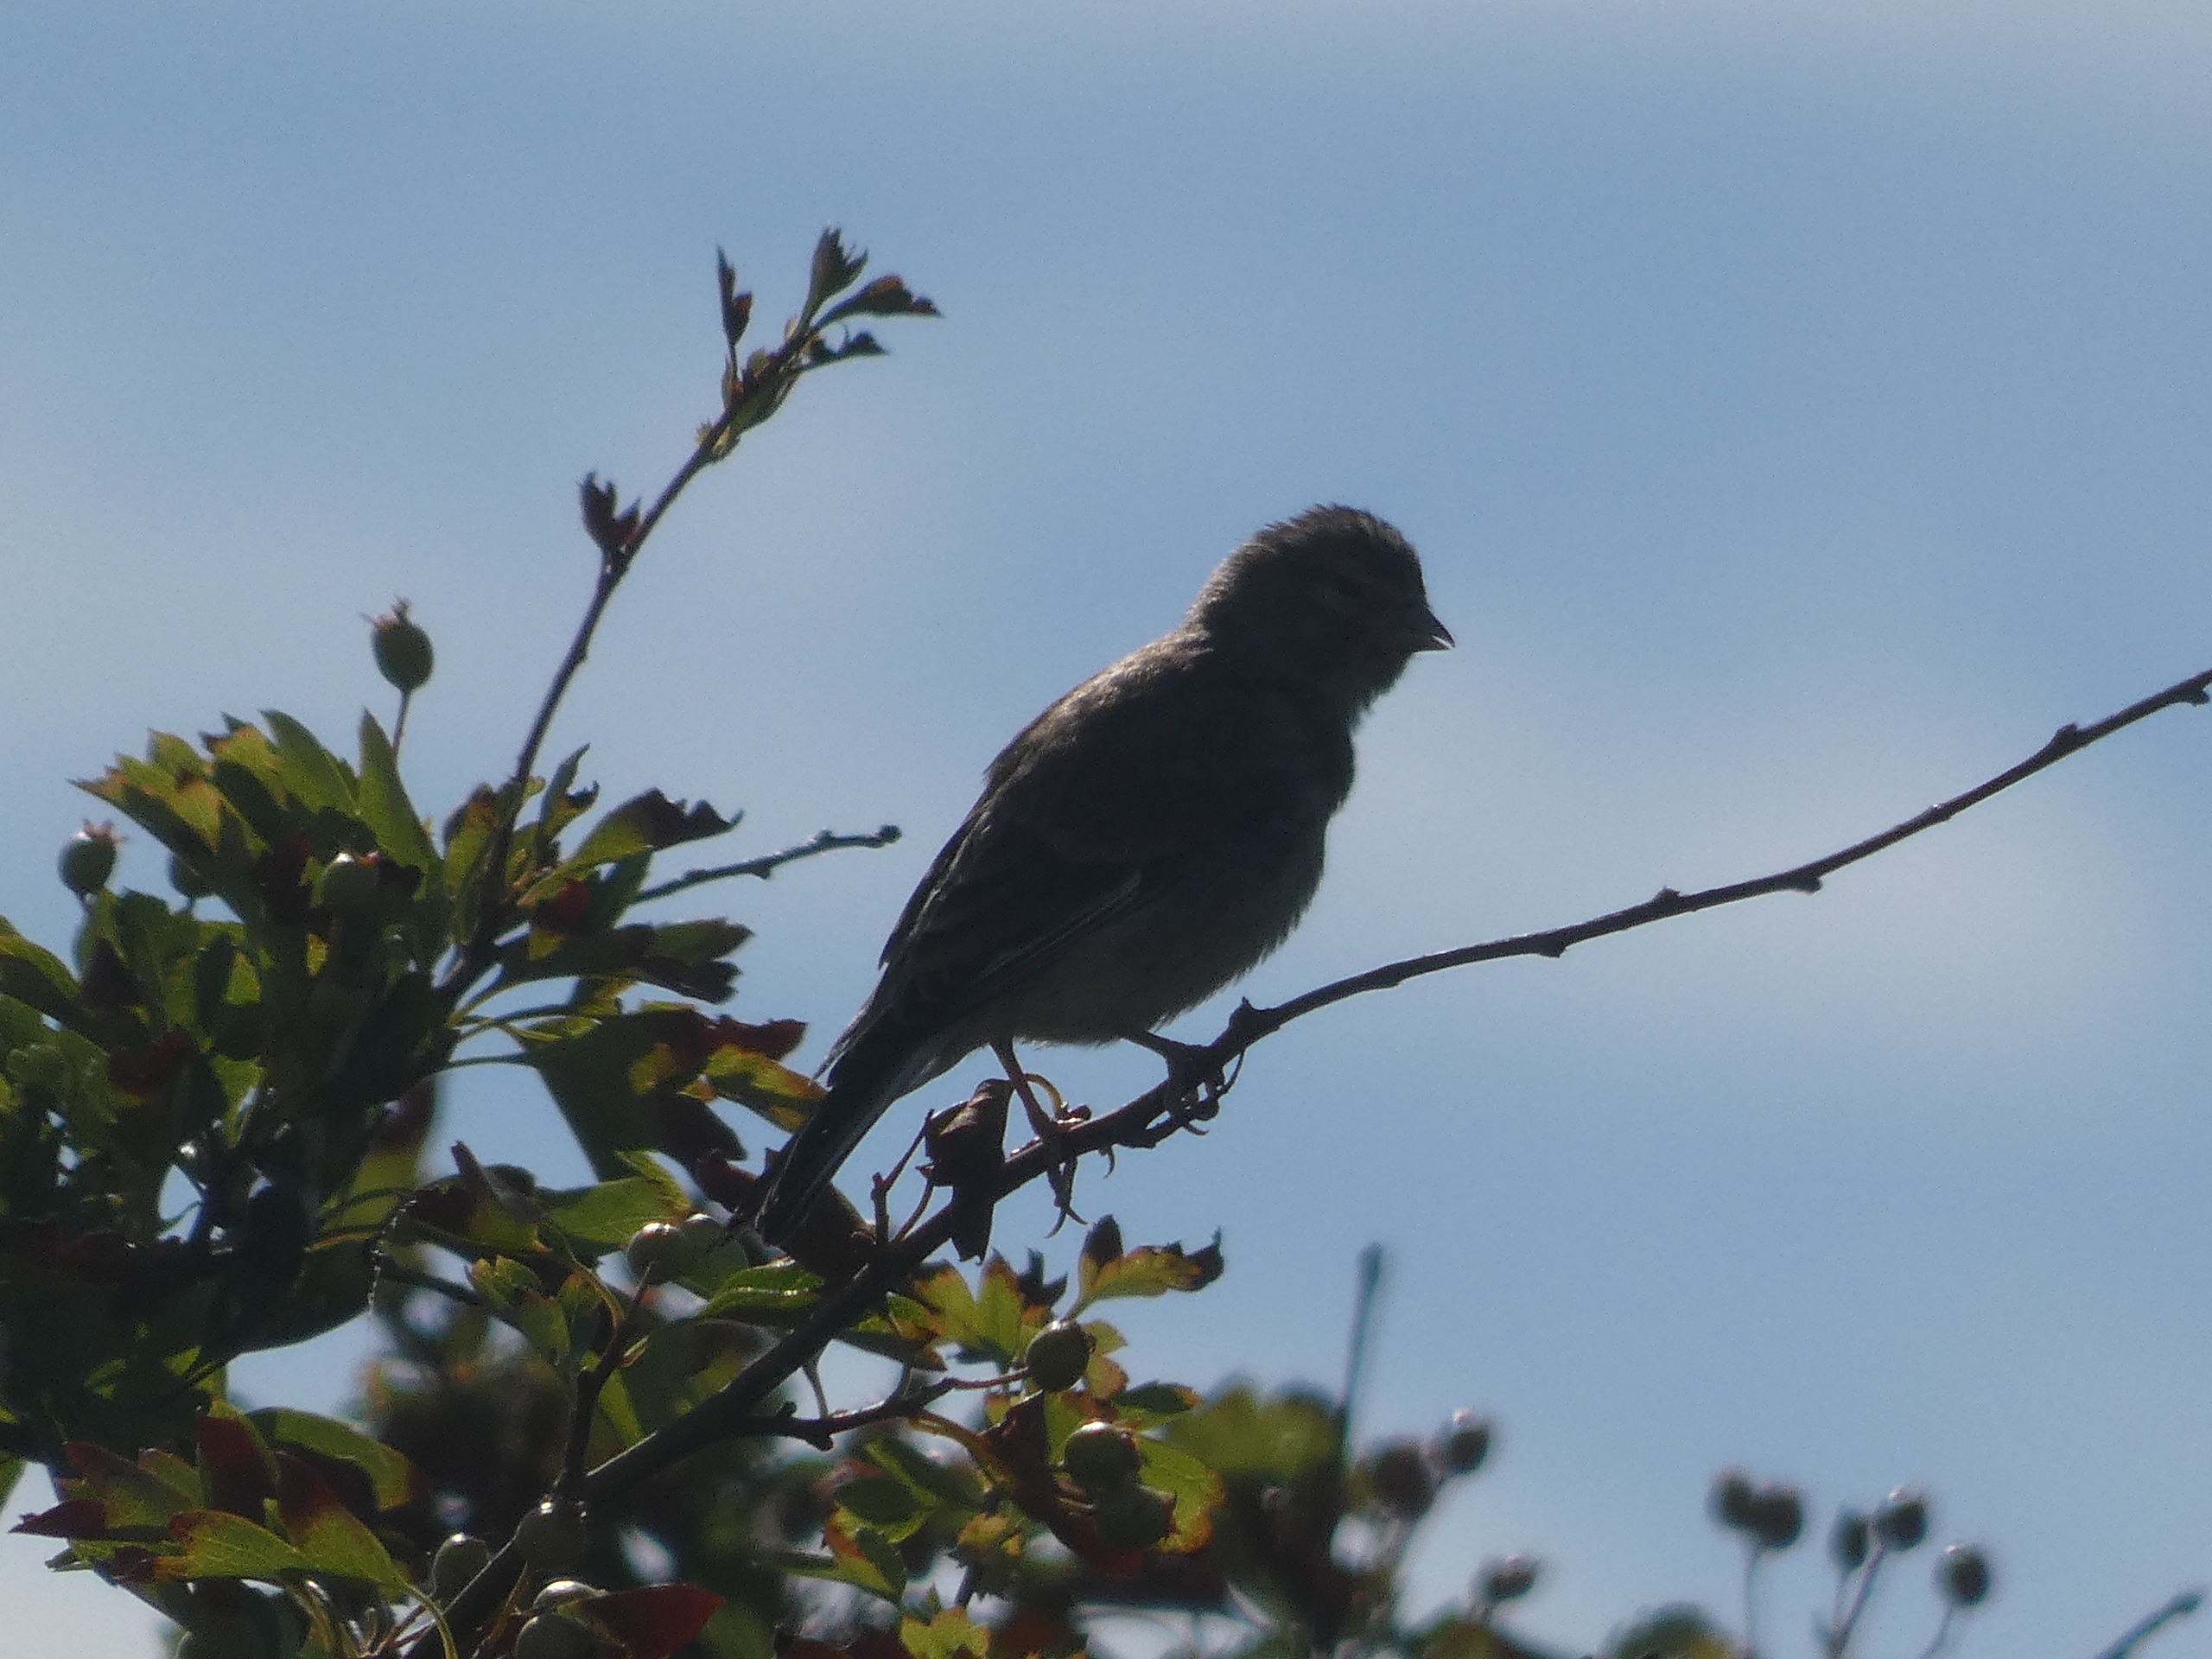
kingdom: Animalia
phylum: Chordata
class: Aves
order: Passeriformes
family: Fringillidae
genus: Linaria
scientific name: Linaria cannabina
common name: Tornirisk
